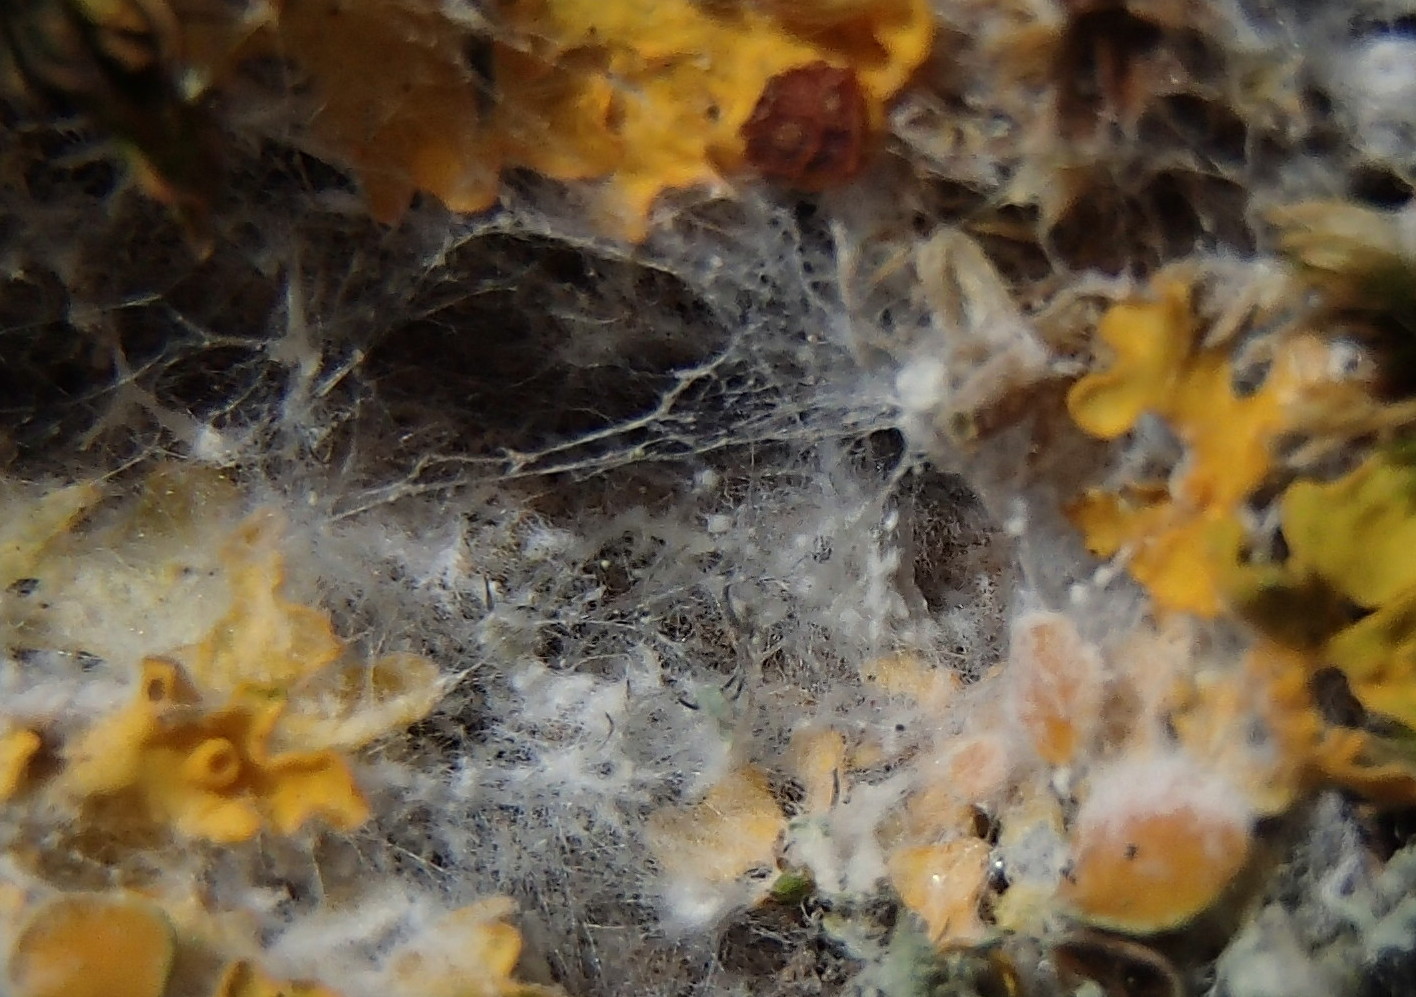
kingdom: Fungi
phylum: Basidiomycota
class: Agaricomycetes
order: Atheliales
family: Atheliaceae
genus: Athelia
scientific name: Athelia arachnoidea
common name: randet barkhinde
